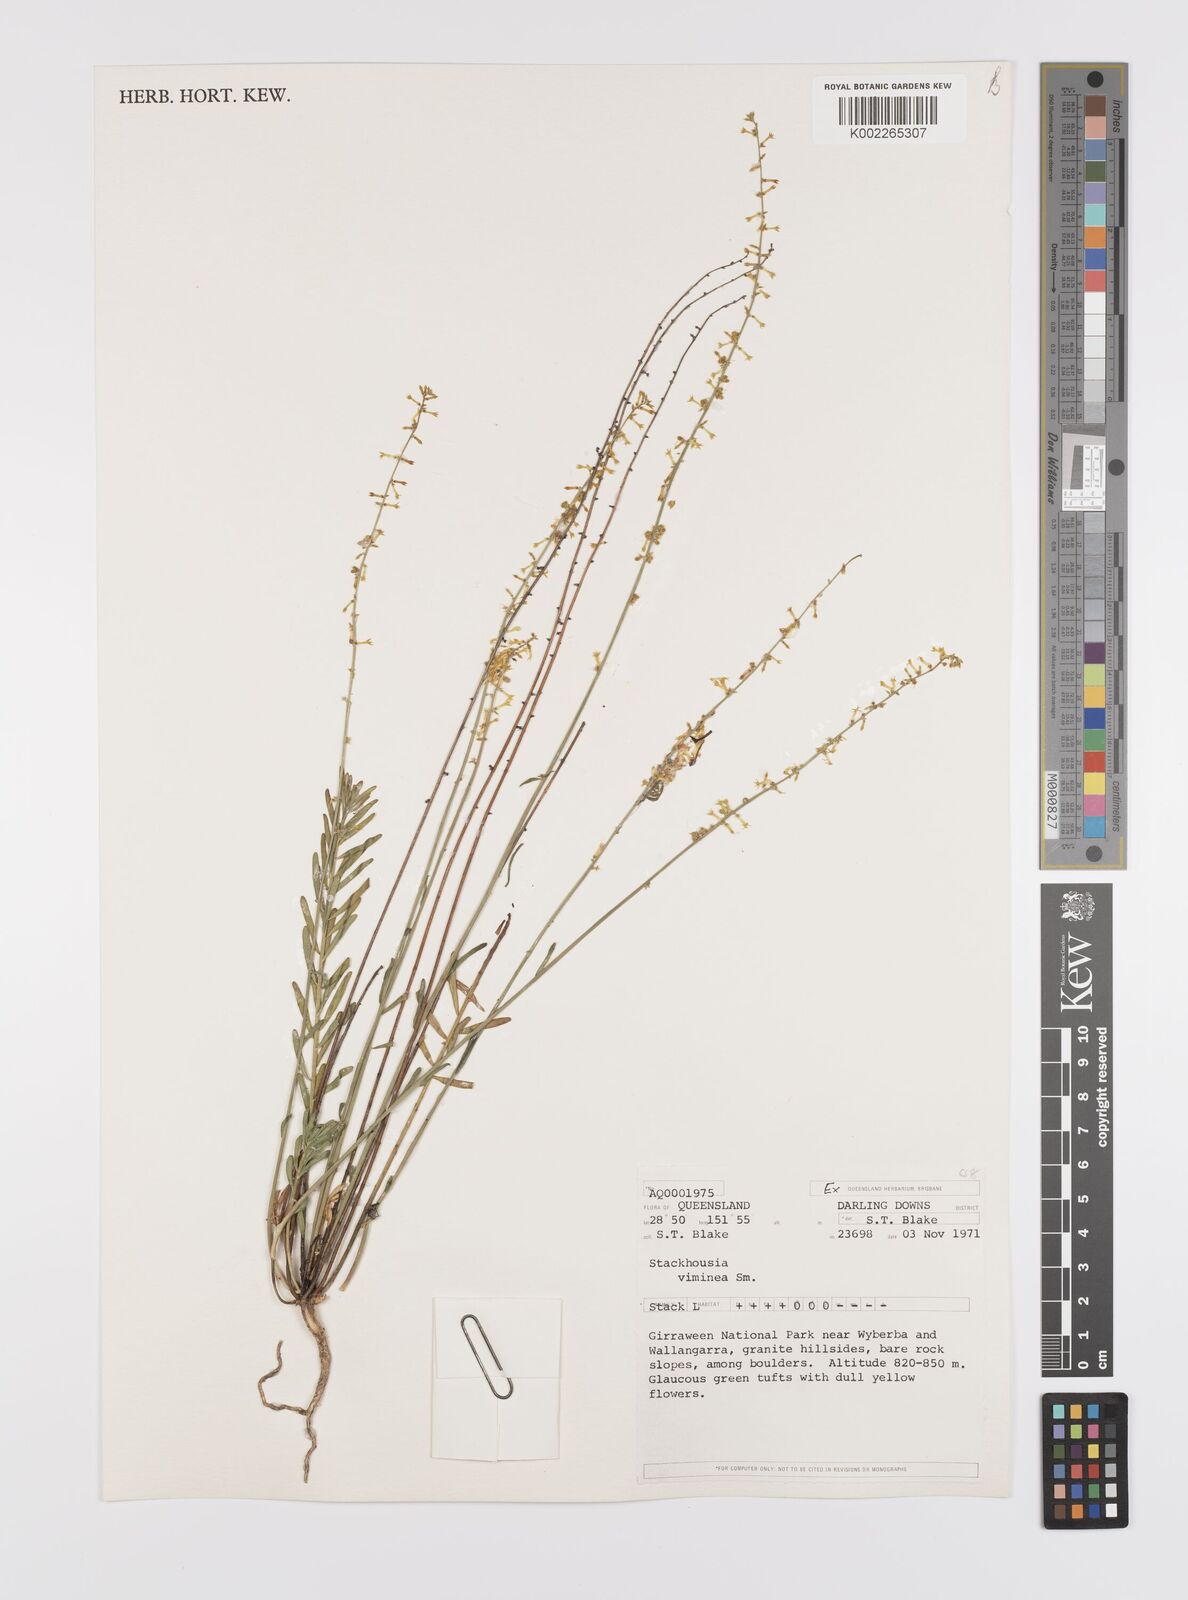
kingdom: Plantae
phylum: Tracheophyta
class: Magnoliopsida
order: Celastrales
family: Celastraceae
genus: Stackhousia
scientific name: Stackhousia viminea
